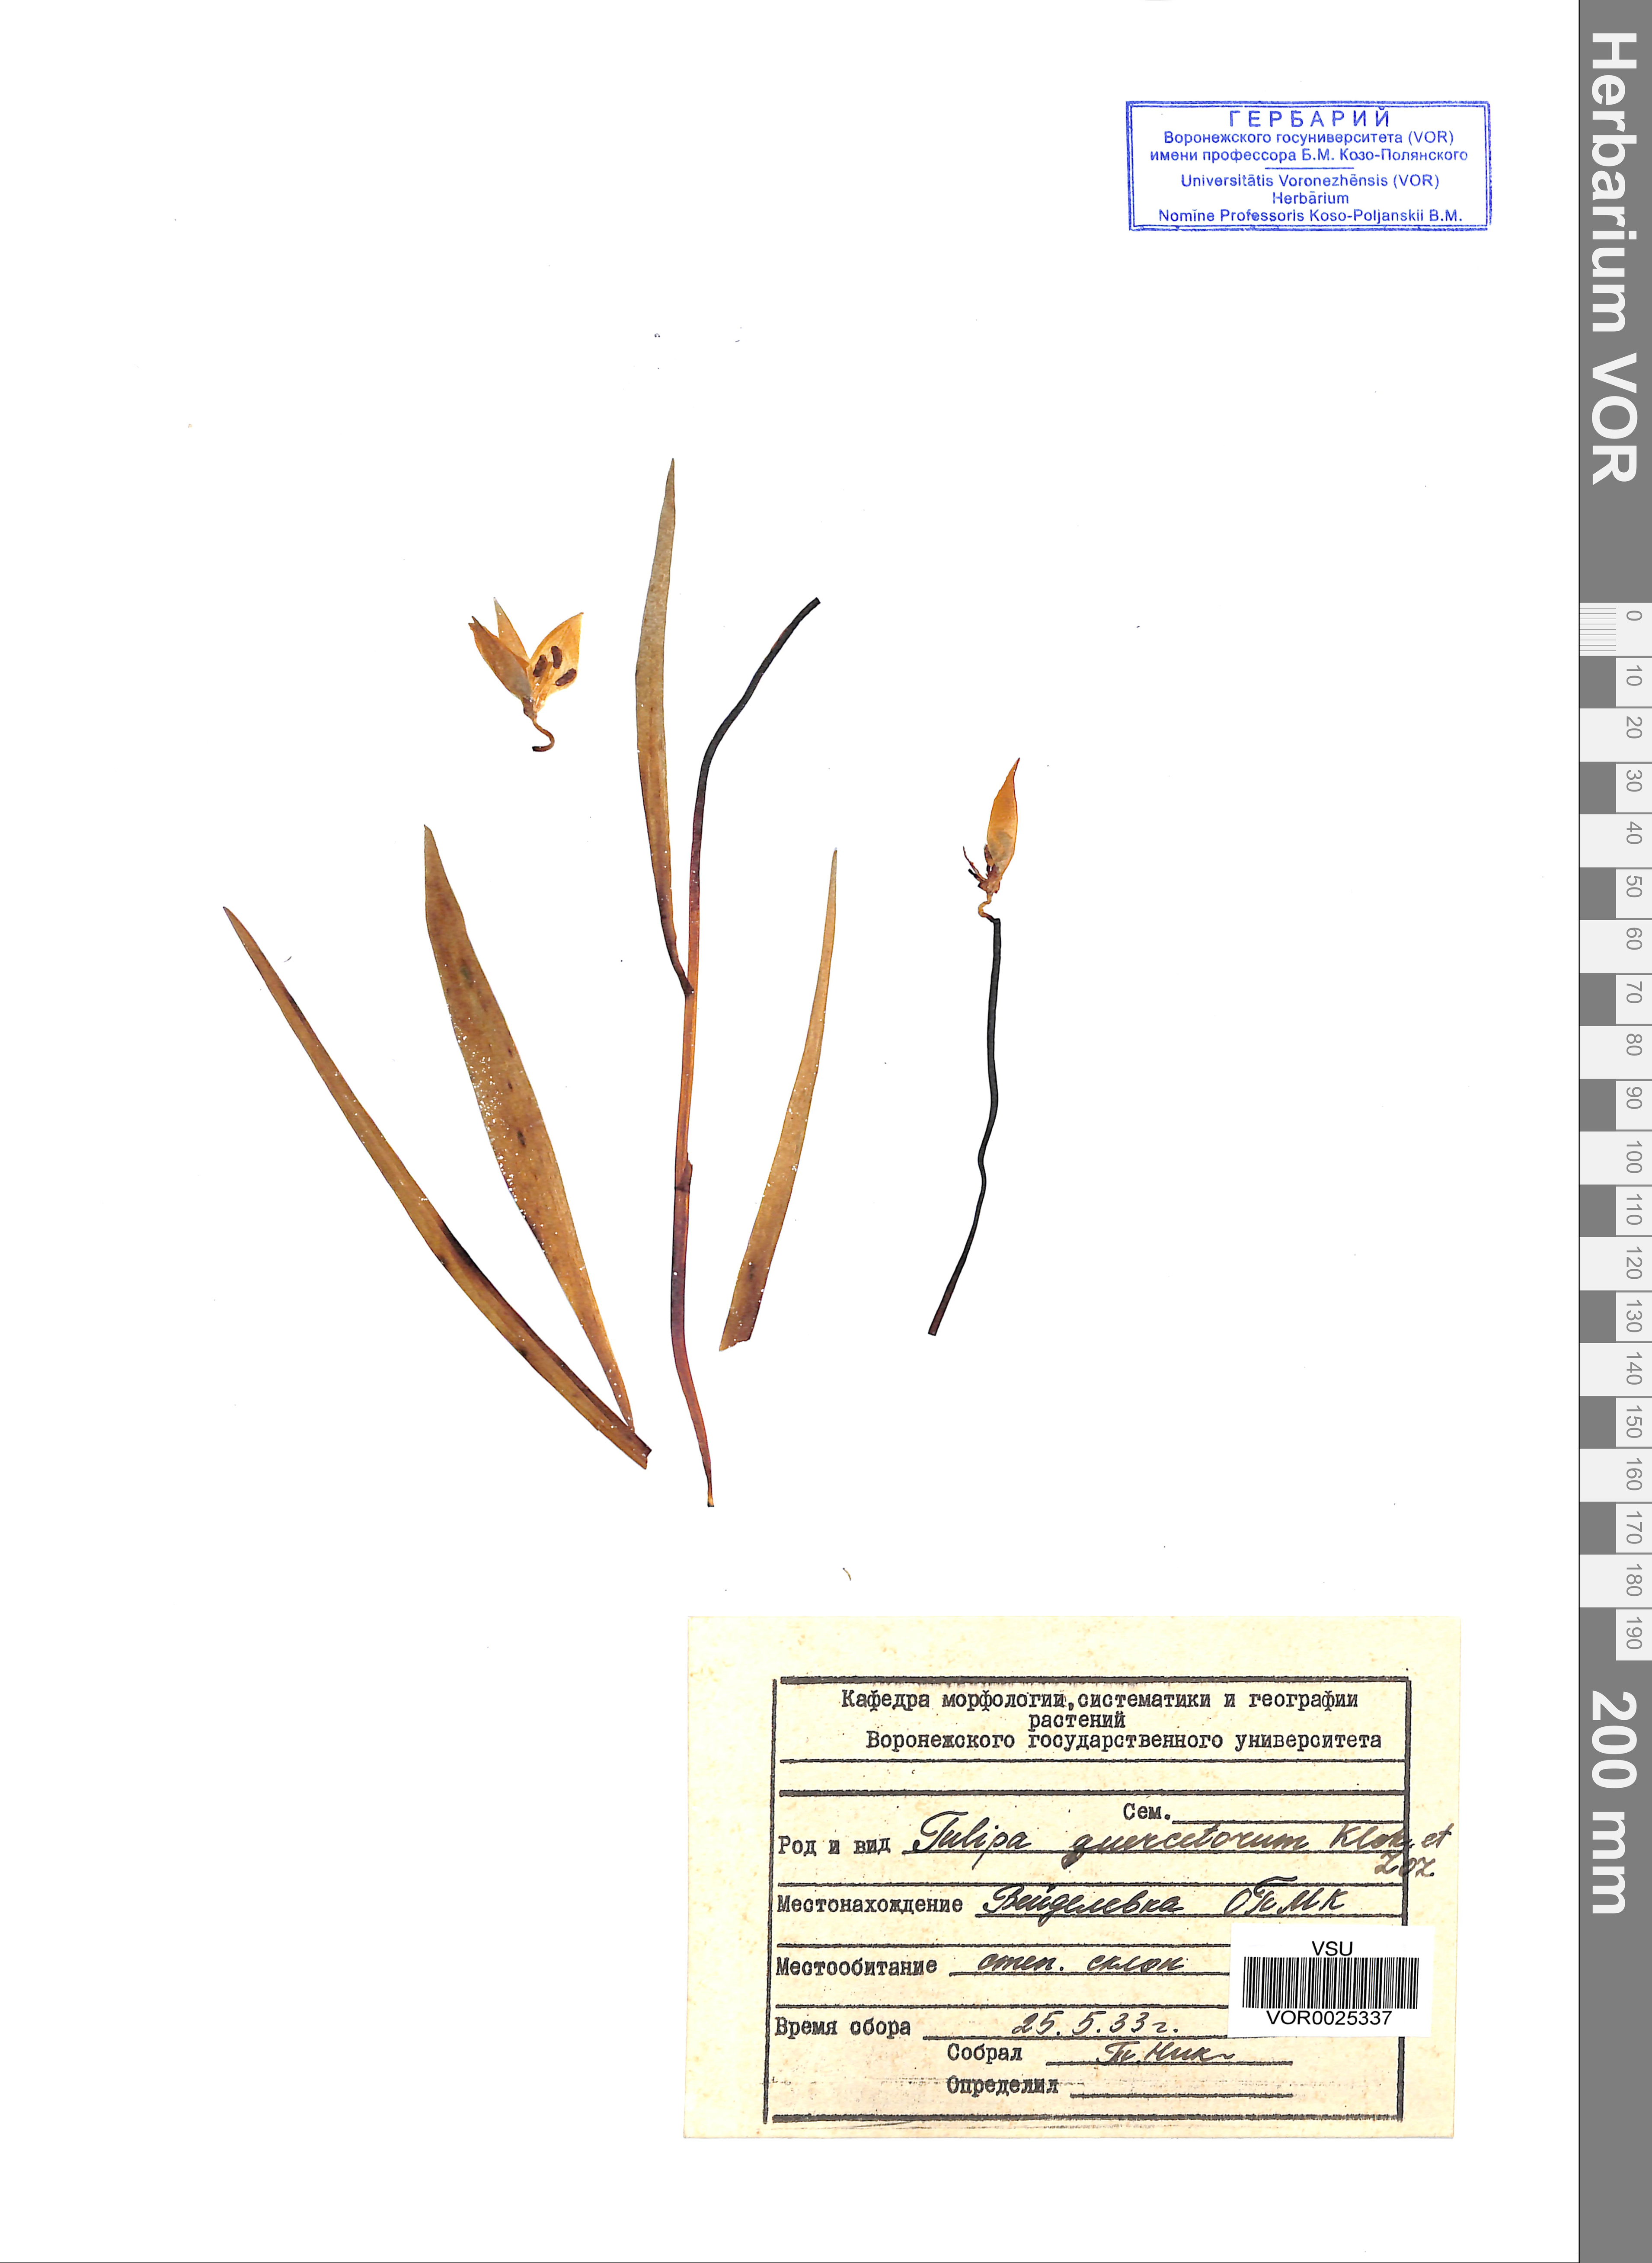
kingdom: Plantae
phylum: Tracheophyta
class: Liliopsida
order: Liliales
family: Liliaceae
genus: Tulipa
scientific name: Tulipa sylvestris
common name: Wild tulip
